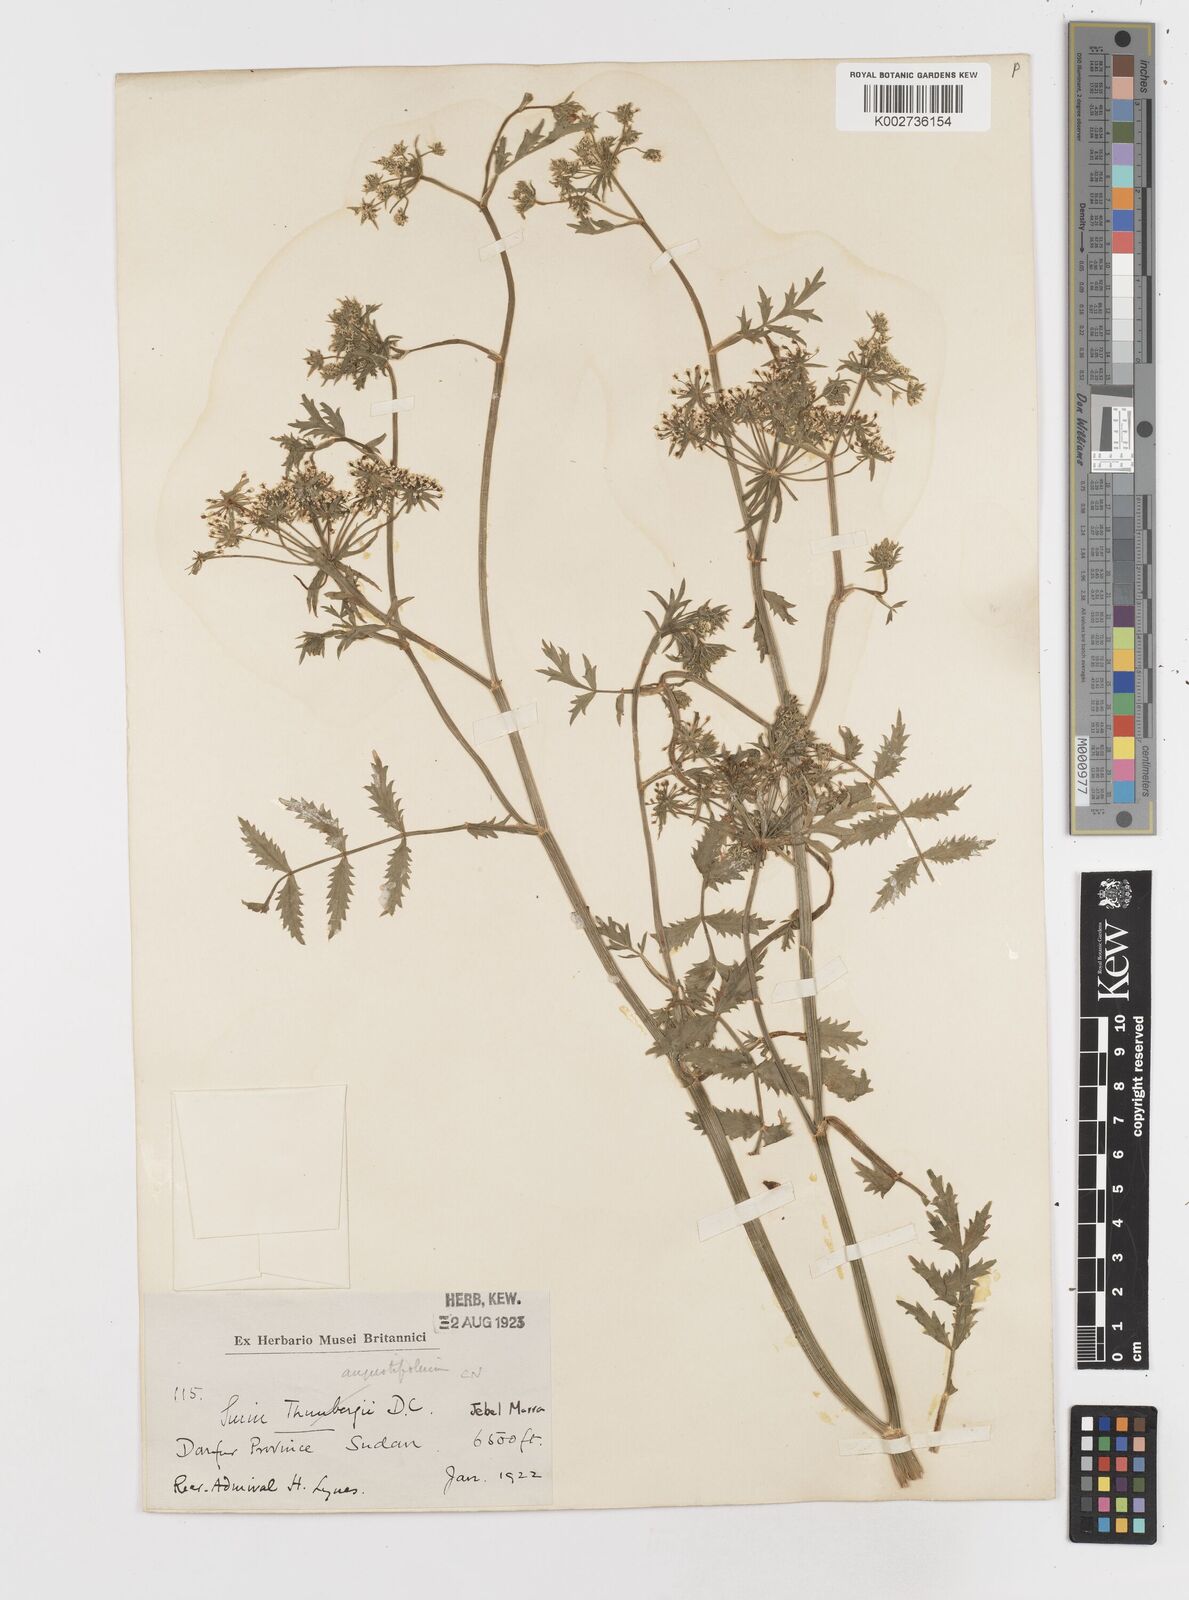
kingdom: Plantae
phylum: Tracheophyta
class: Magnoliopsida
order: Apiales
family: Apiaceae
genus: Berula
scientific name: Berula erecta
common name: Lesser water-parsnip
